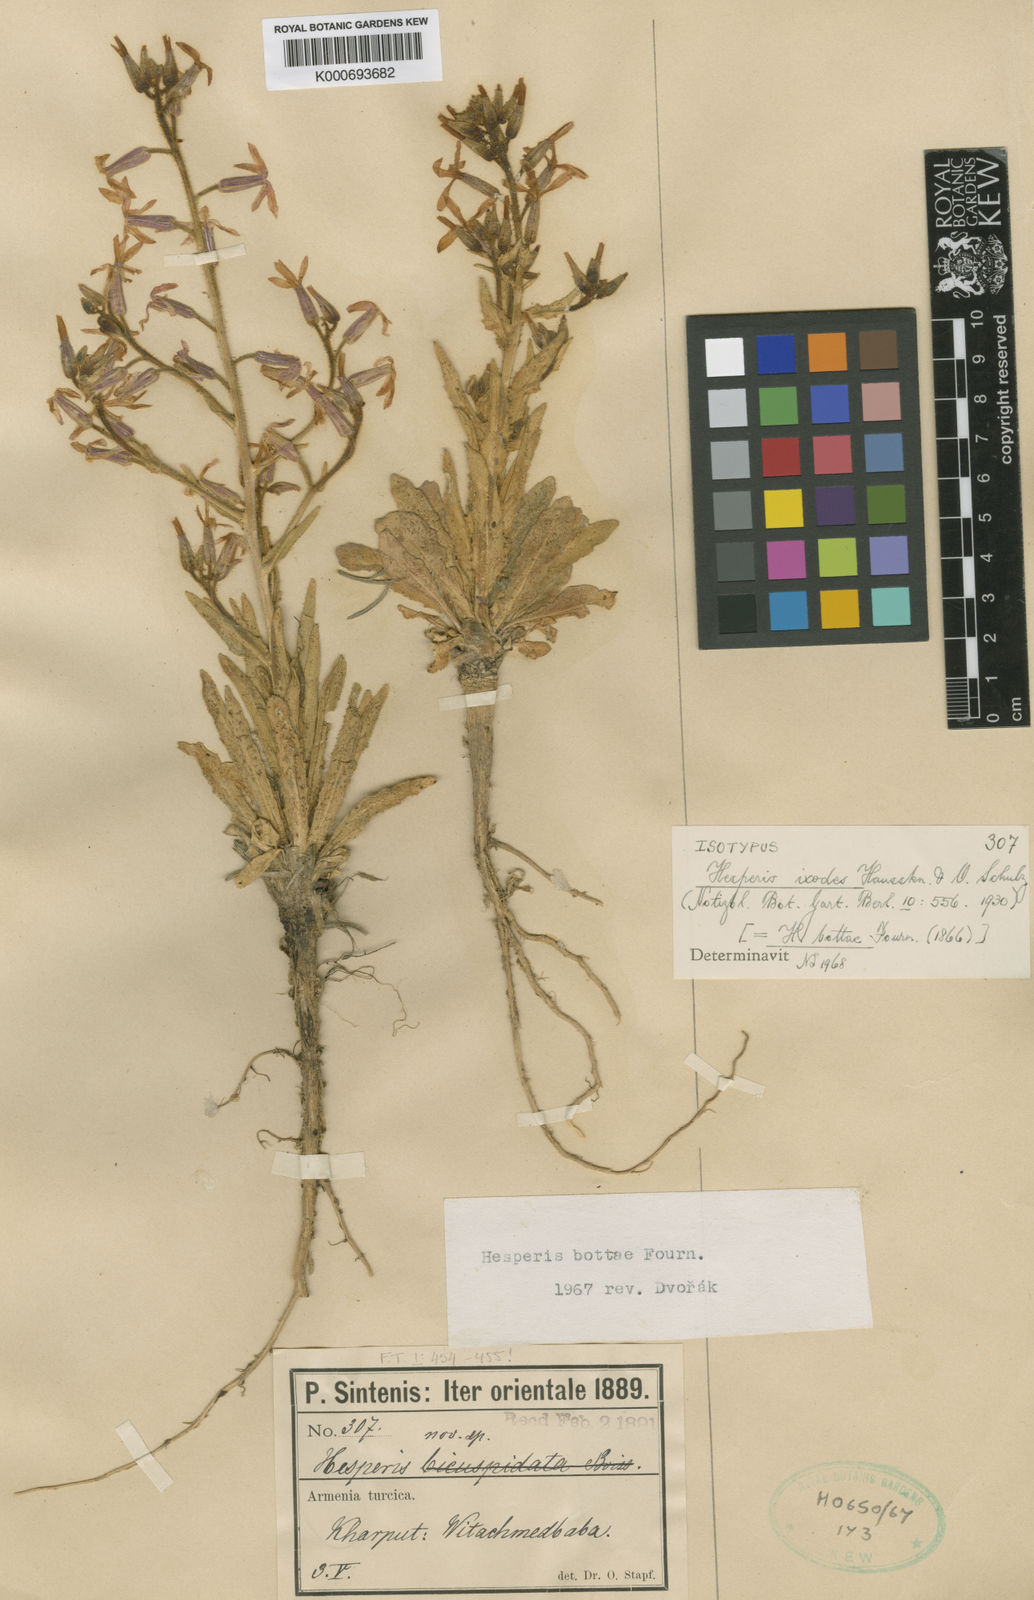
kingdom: Plantae
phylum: Tracheophyta
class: Magnoliopsida
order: Brassicales
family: Brassicaceae
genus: Hesperis
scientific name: Hesperis
